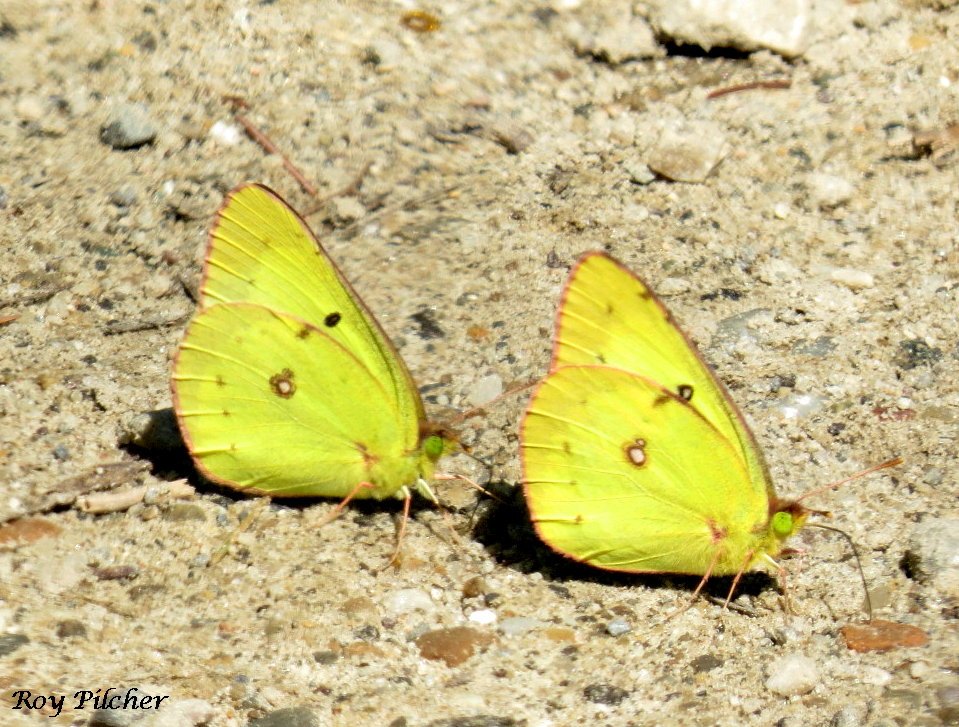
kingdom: Animalia
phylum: Arthropoda
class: Insecta
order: Lepidoptera
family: Pieridae
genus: Colias
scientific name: Colias philodice
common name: Clouded Sulphur
